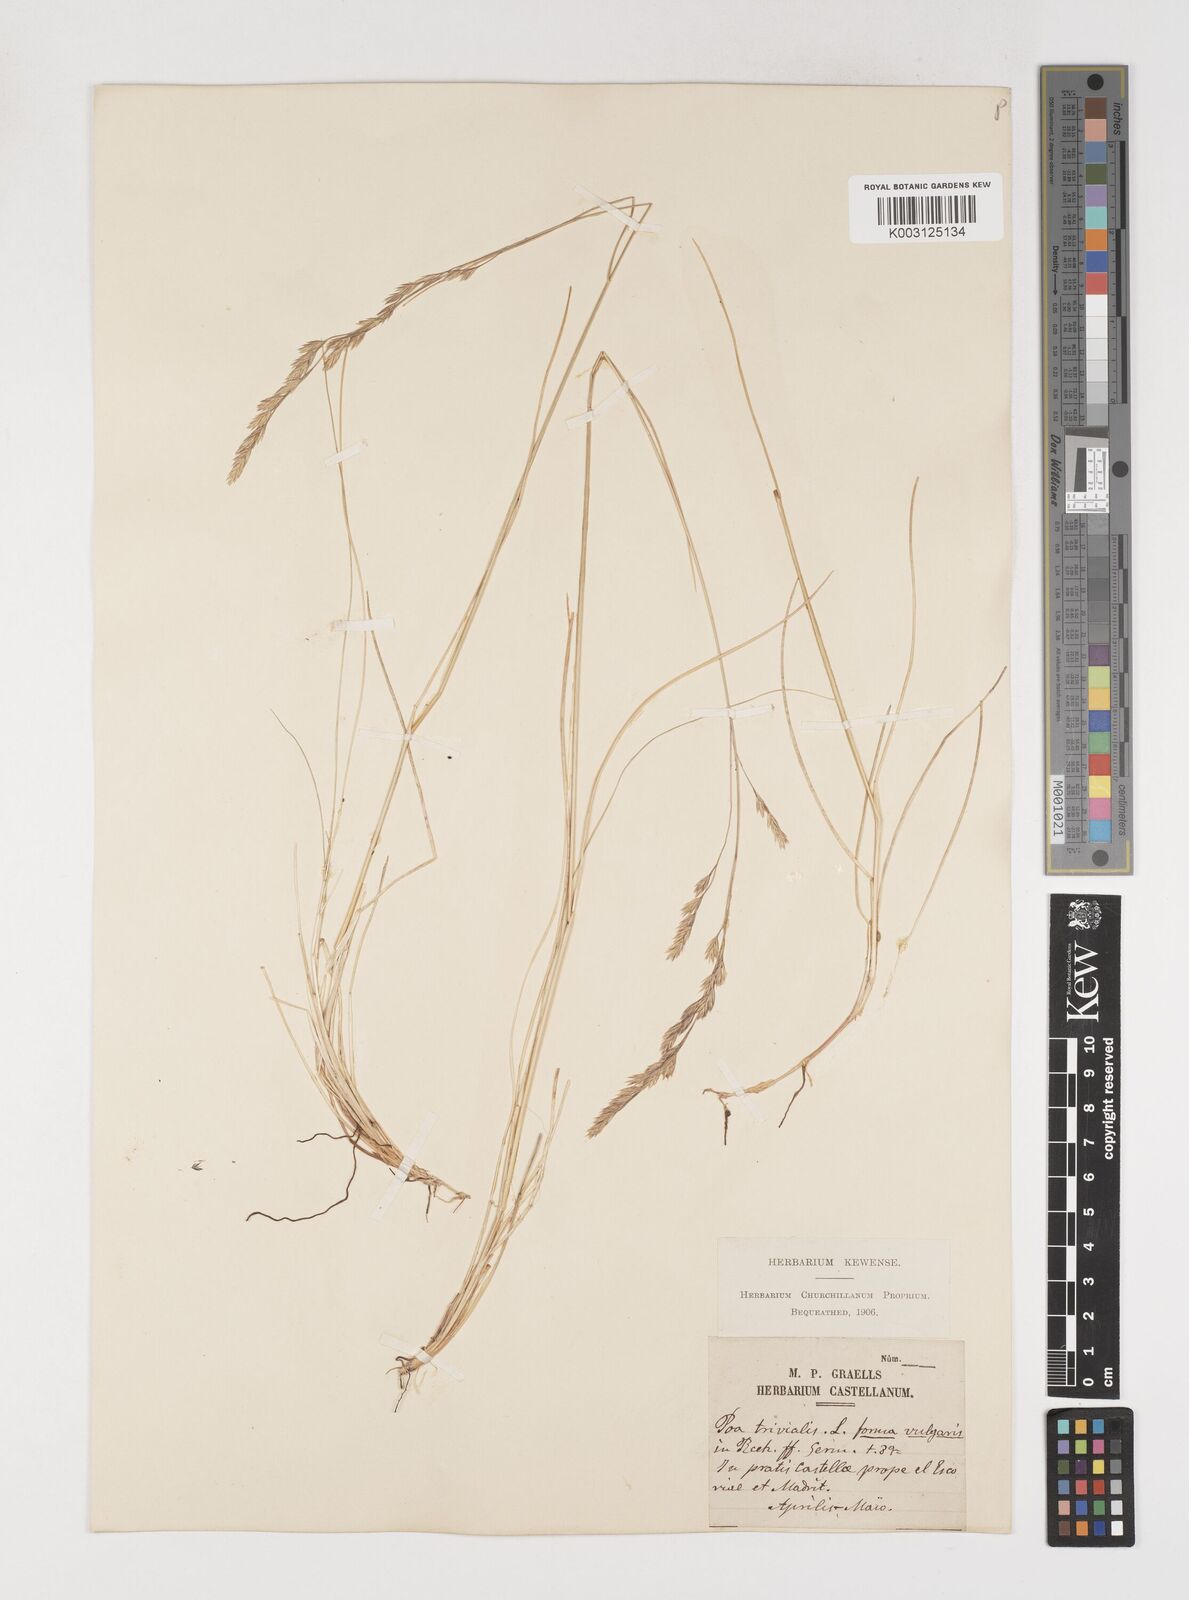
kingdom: Plantae
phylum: Tracheophyta
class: Liliopsida
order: Poales
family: Poaceae
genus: Poa
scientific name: Poa trivialis
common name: Rough bluegrass
